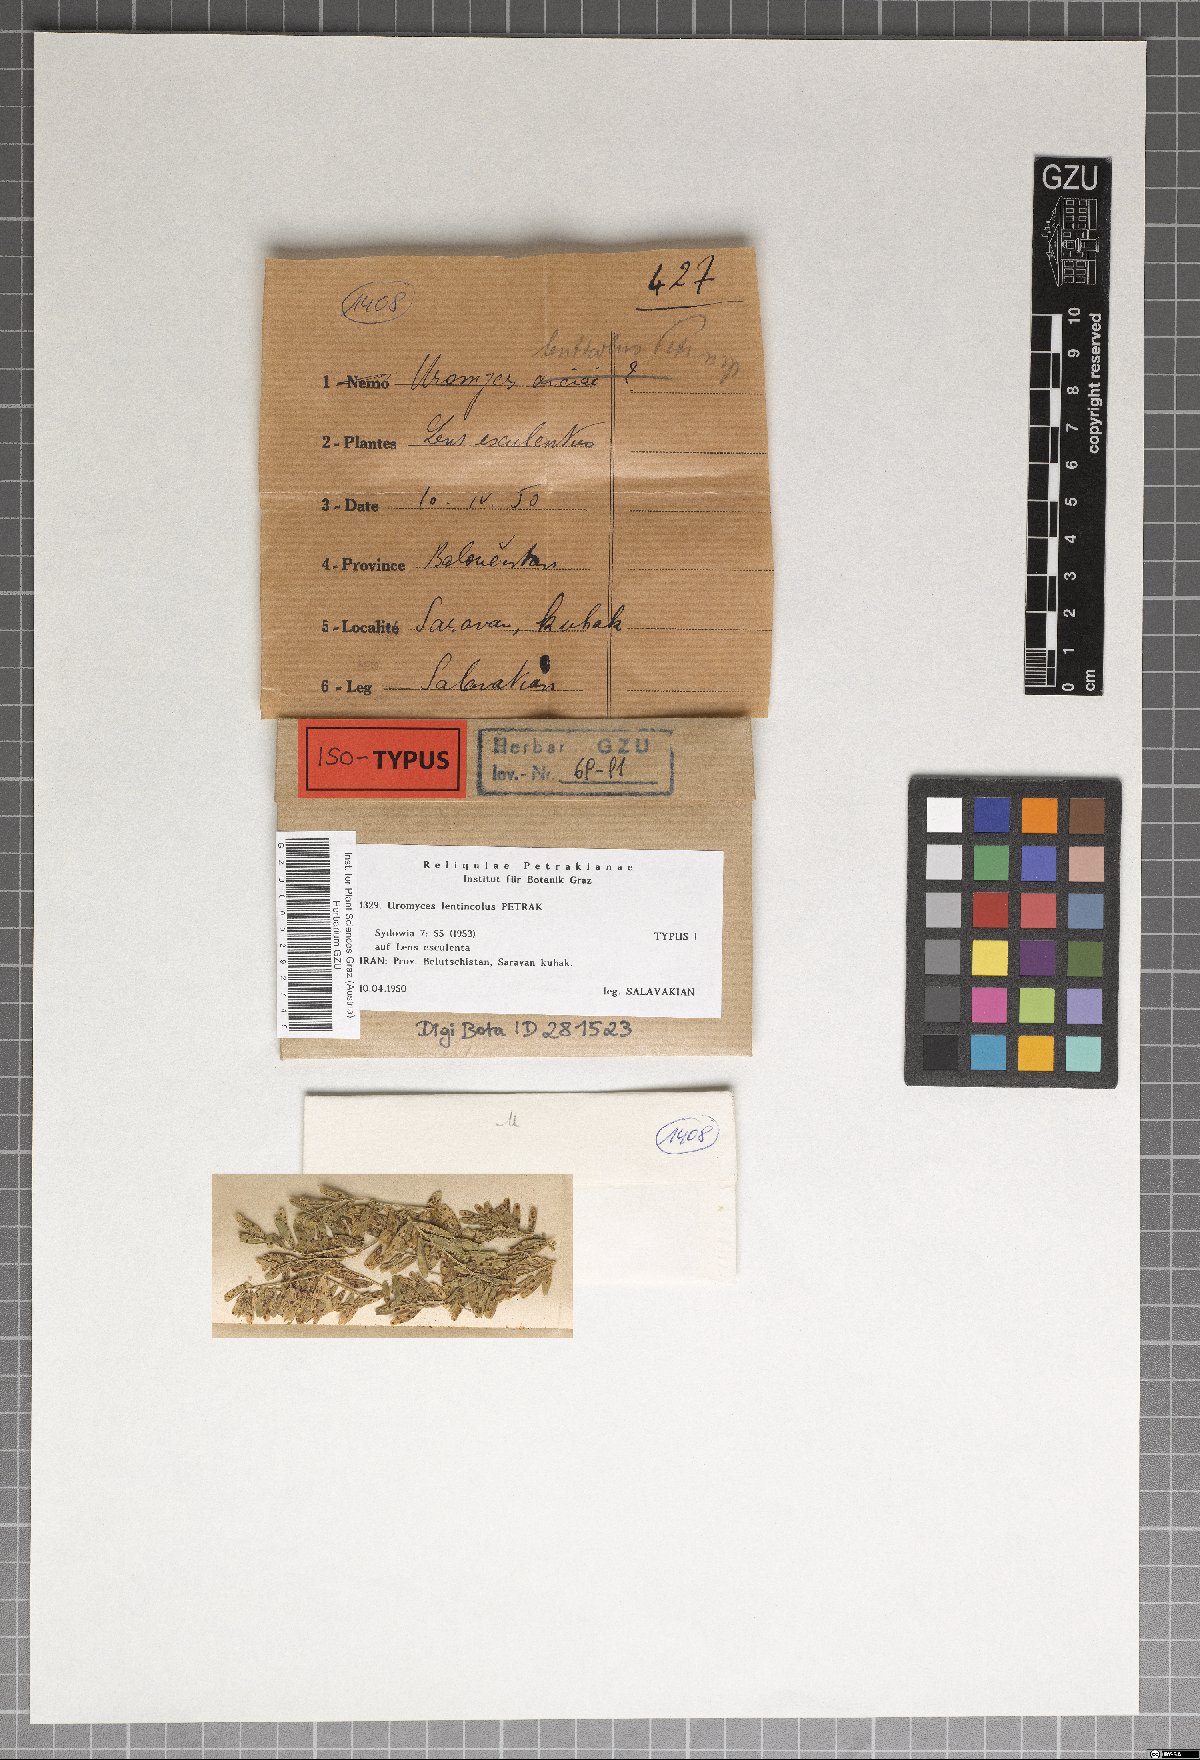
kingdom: Fungi
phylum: Basidiomycota
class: Pucciniomycetes
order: Pucciniales
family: Pucciniaceae
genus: Uromyces
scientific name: Uromyces lenticola
